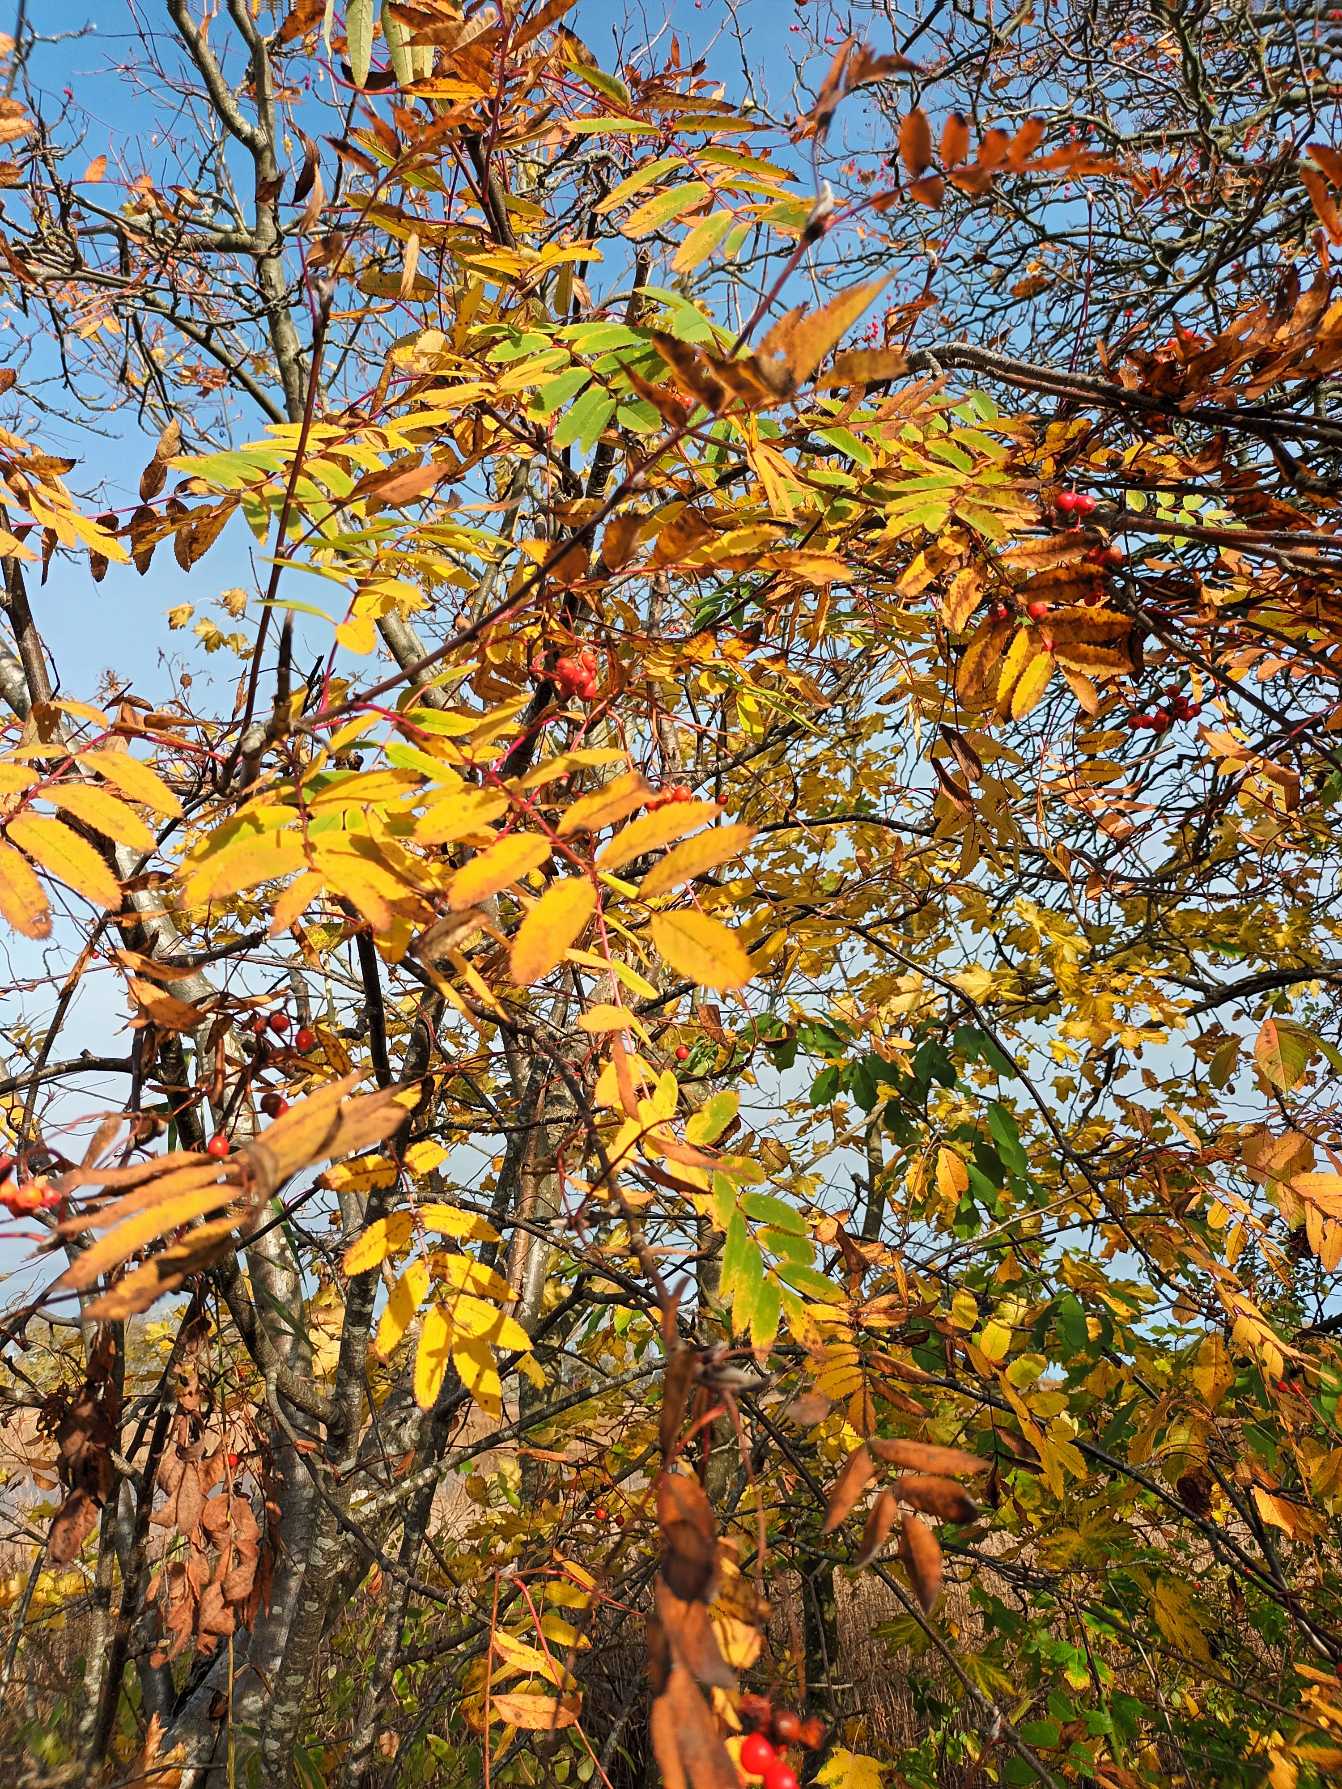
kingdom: Plantae
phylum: Tracheophyta
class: Magnoliopsida
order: Rosales
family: Rosaceae
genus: Sorbus
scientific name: Sorbus aucuparia
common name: Almindelig røn
